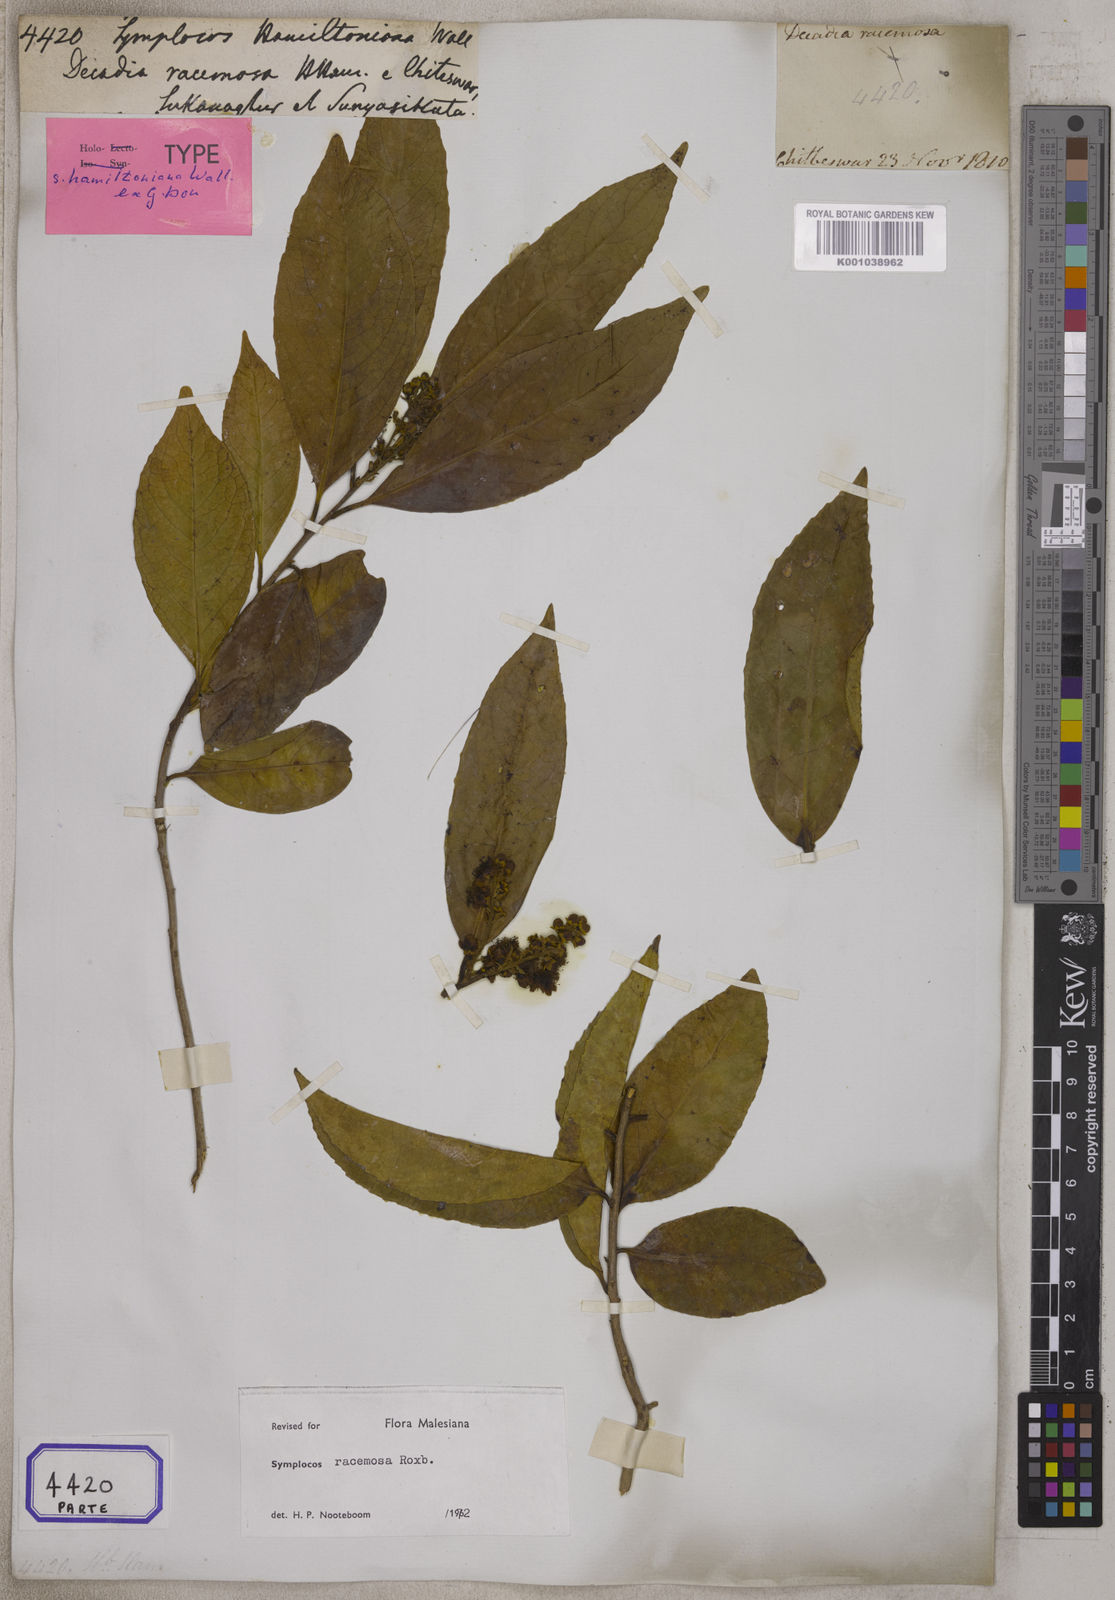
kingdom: Plantae
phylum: Tracheophyta
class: Magnoliopsida
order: Ericales
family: Symplocaceae
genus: Symplocos
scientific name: Symplocos
